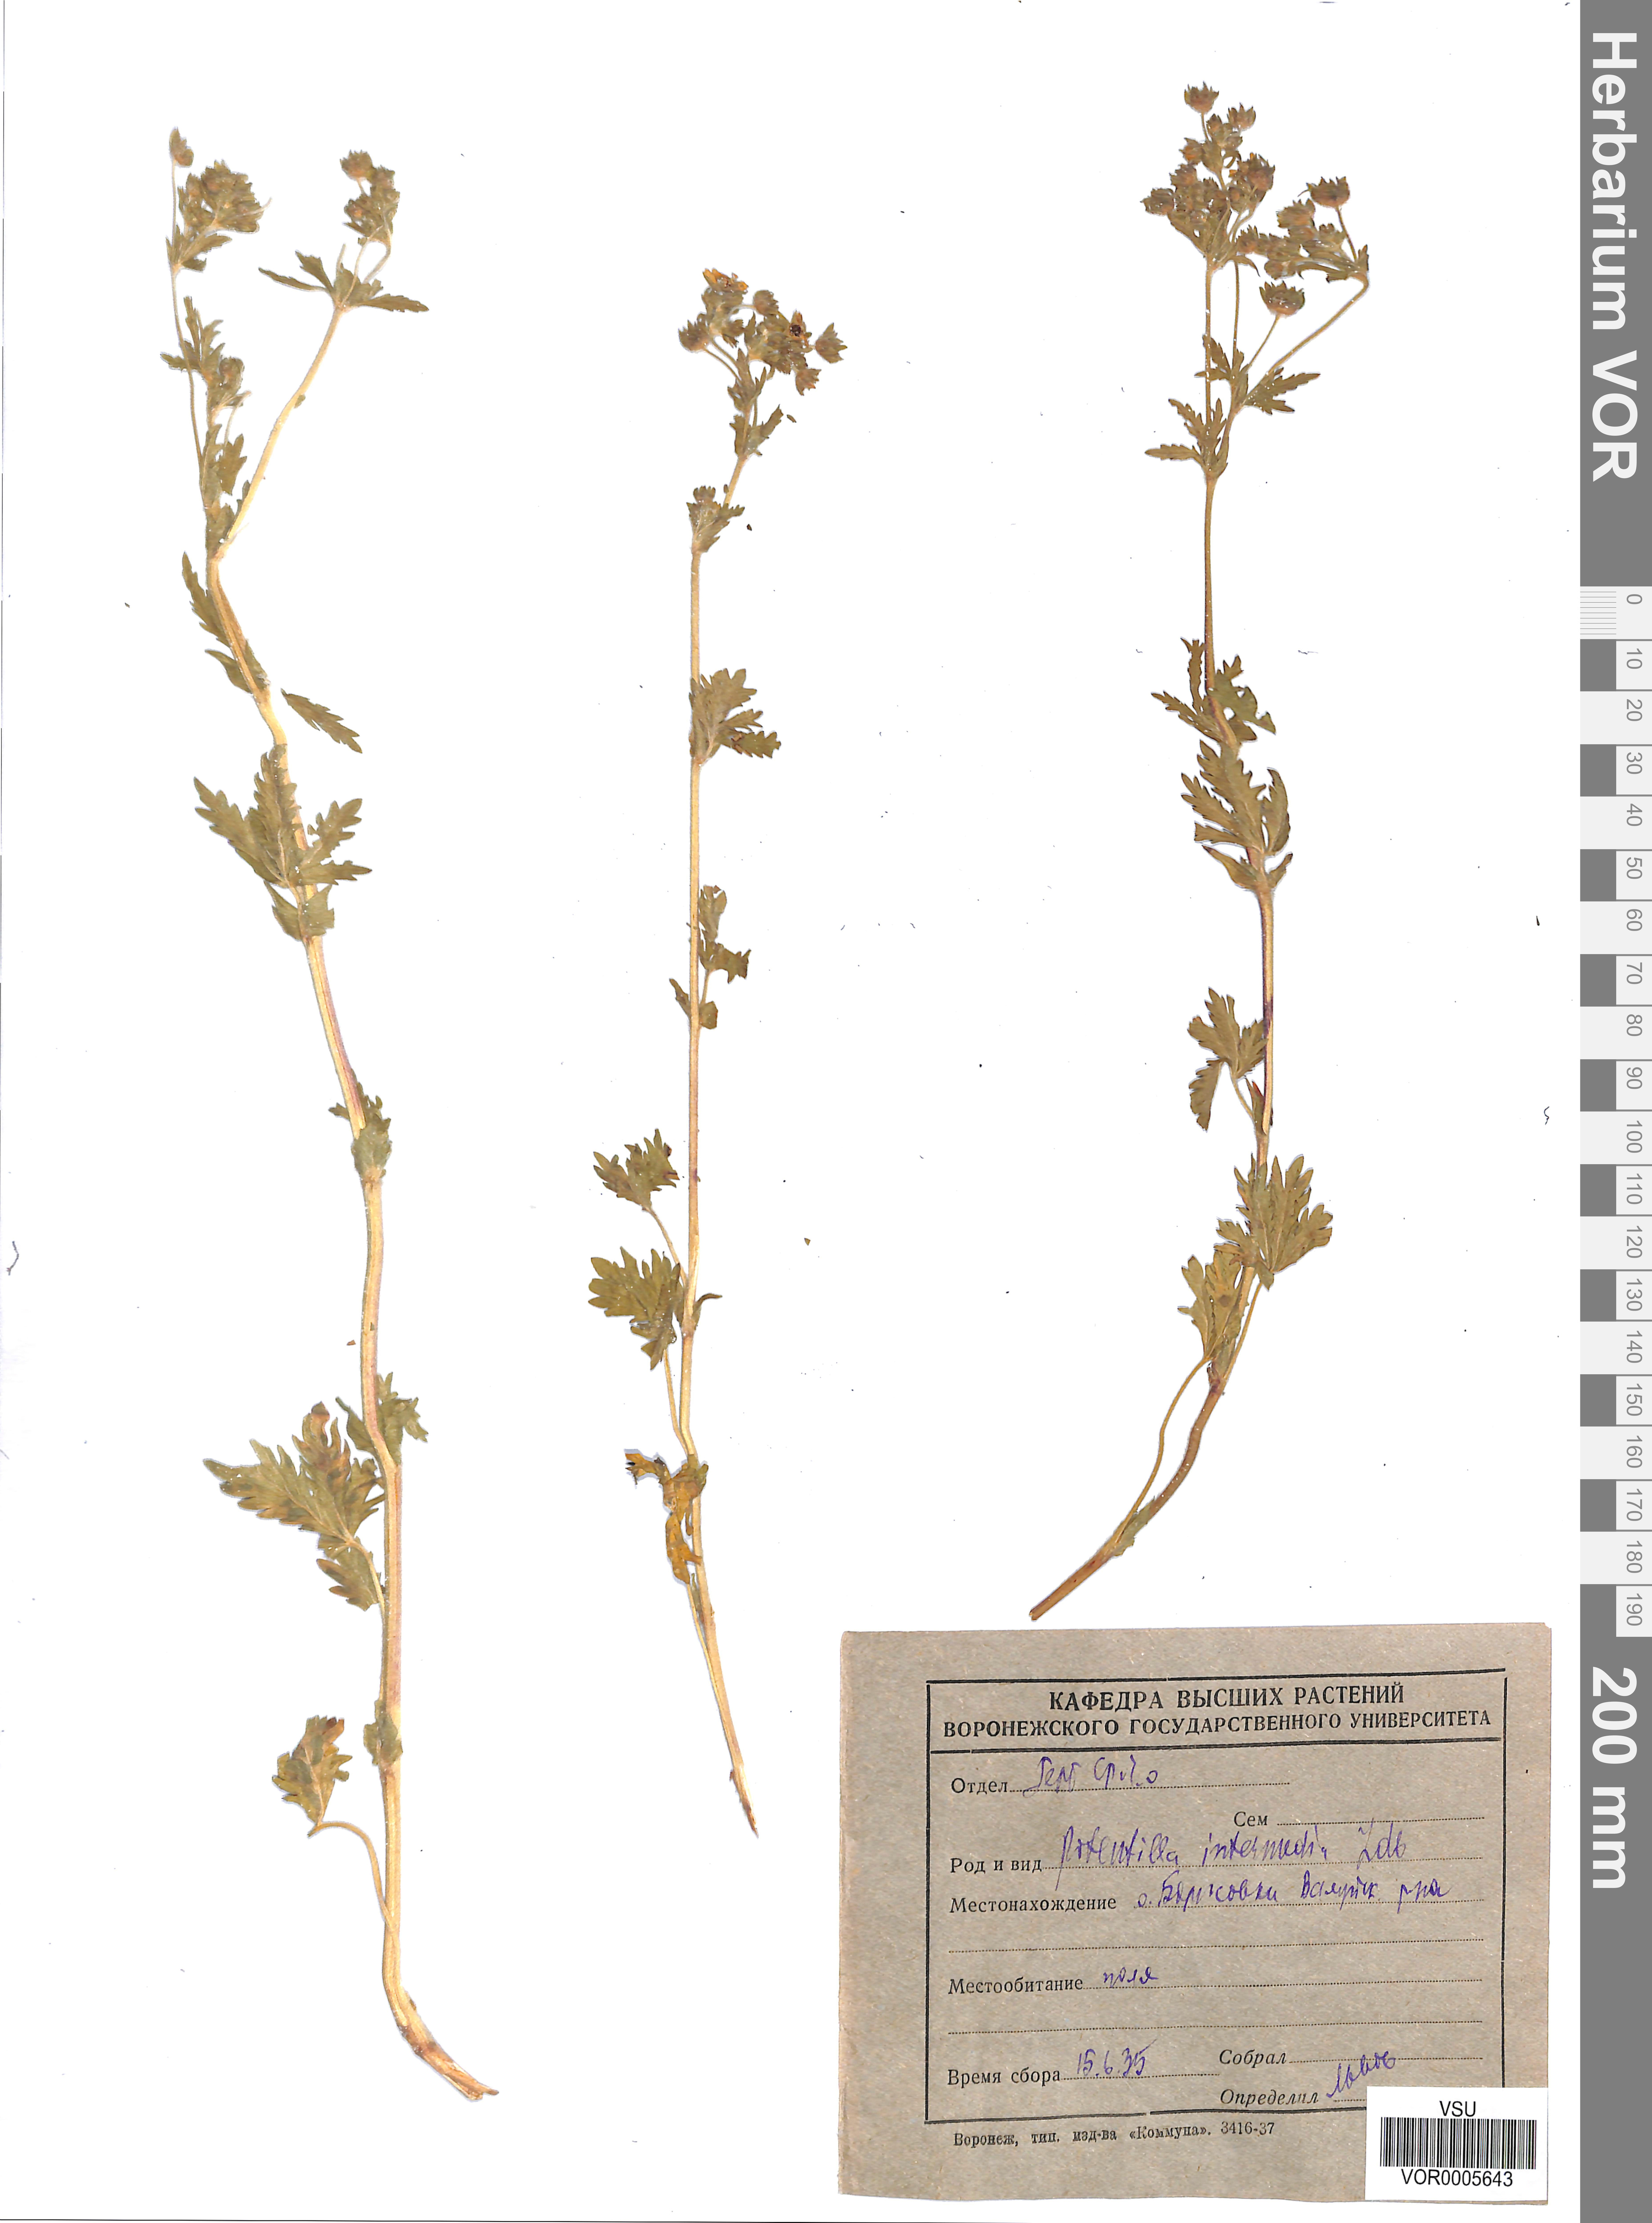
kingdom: Plantae
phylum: Tracheophyta
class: Magnoliopsida
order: Rosales
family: Rosaceae
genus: Potentilla
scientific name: Potentilla norvegica
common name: Ternate-leaved cinquefoil
